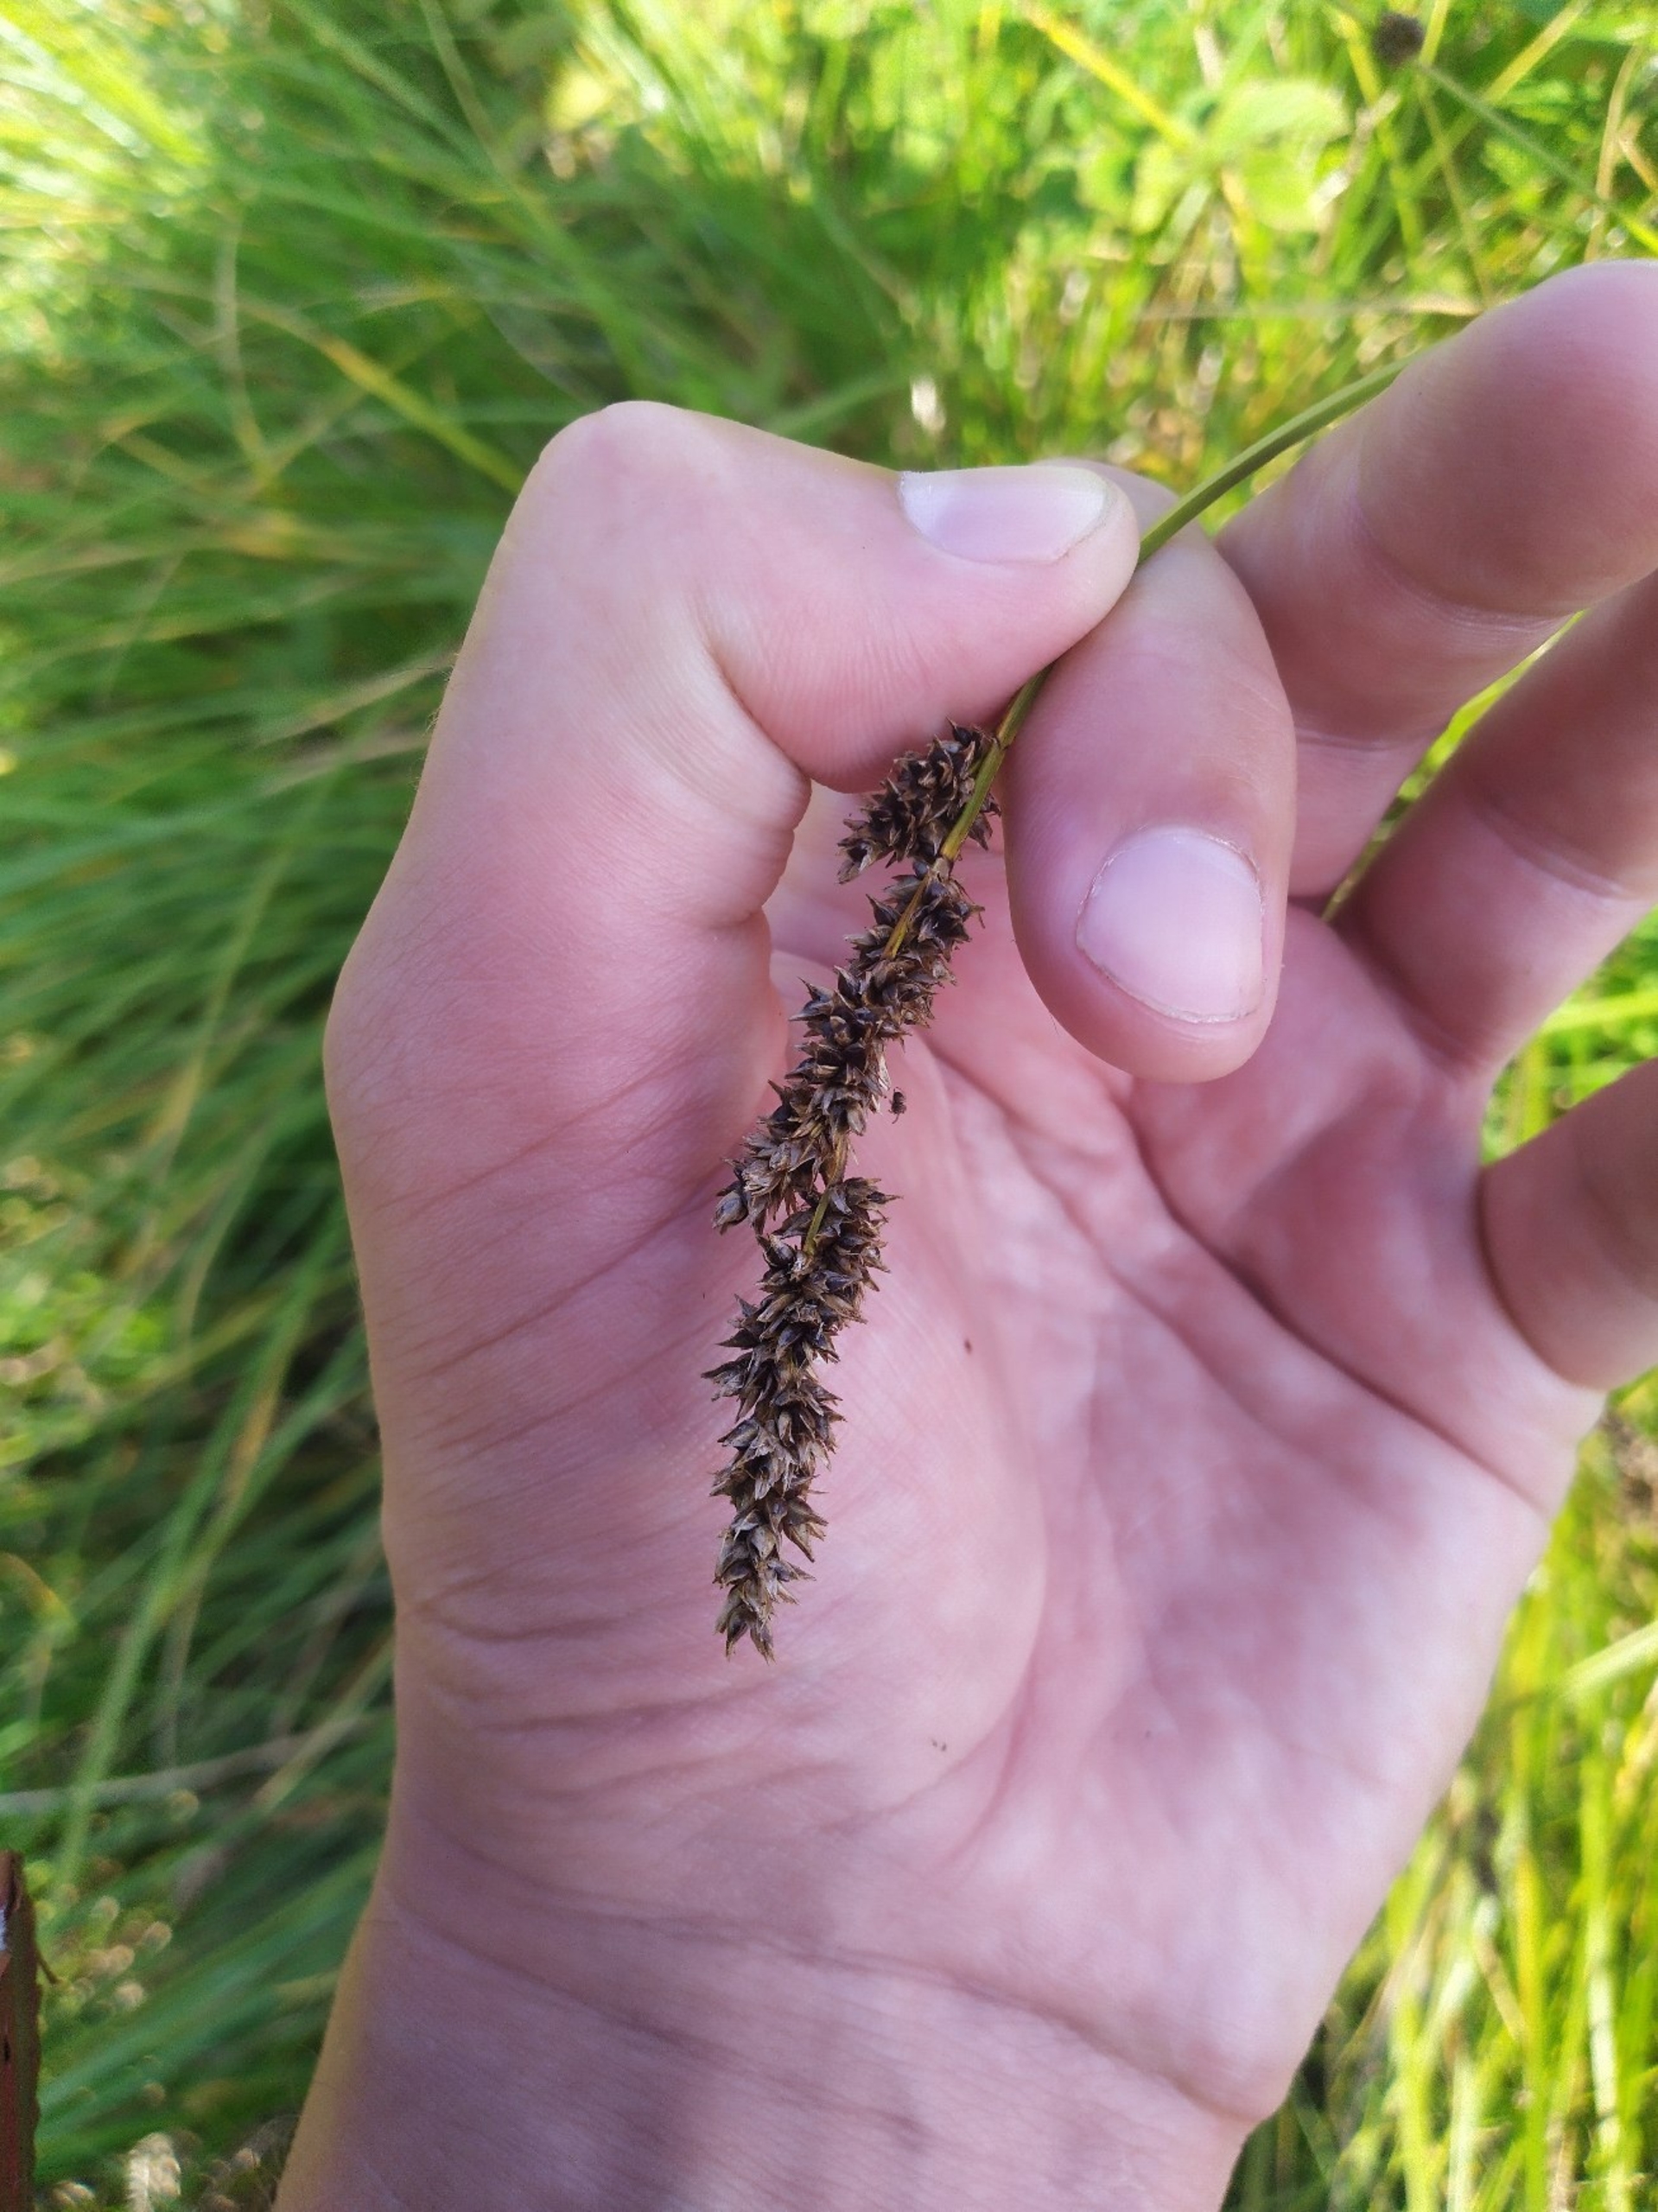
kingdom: Plantae
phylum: Tracheophyta
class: Liliopsida
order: Poales
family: Cyperaceae
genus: Carex
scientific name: Carex paniculata
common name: Top-star
